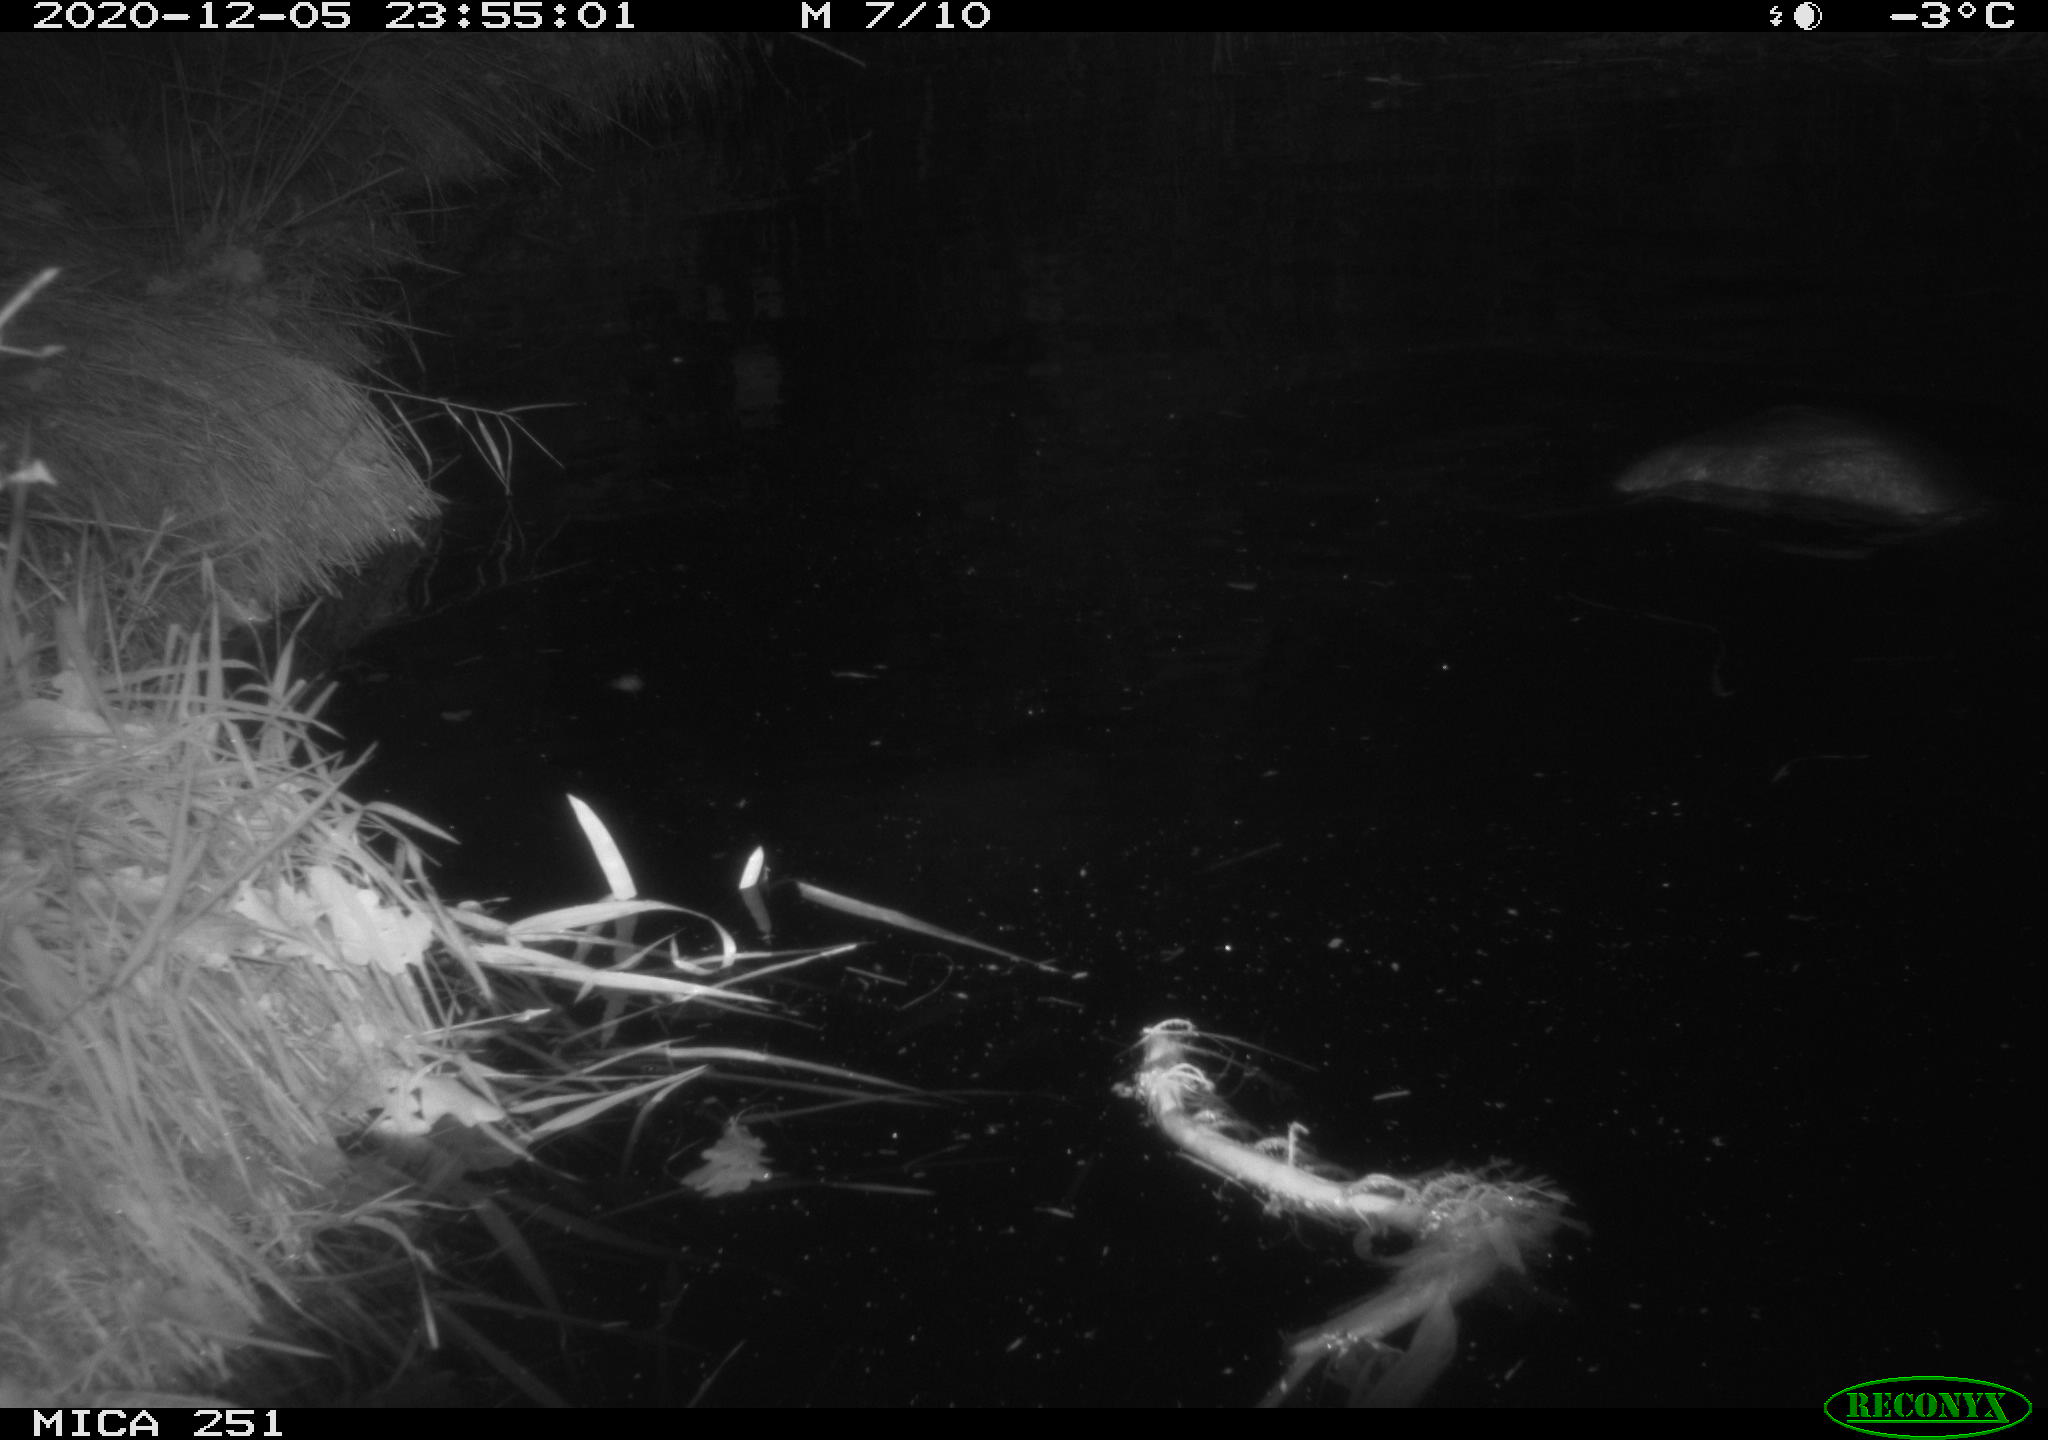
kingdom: Animalia
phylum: Chordata
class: Mammalia
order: Rodentia
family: Castoridae
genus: Castor
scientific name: Castor fiber
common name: Eurasian beaver
